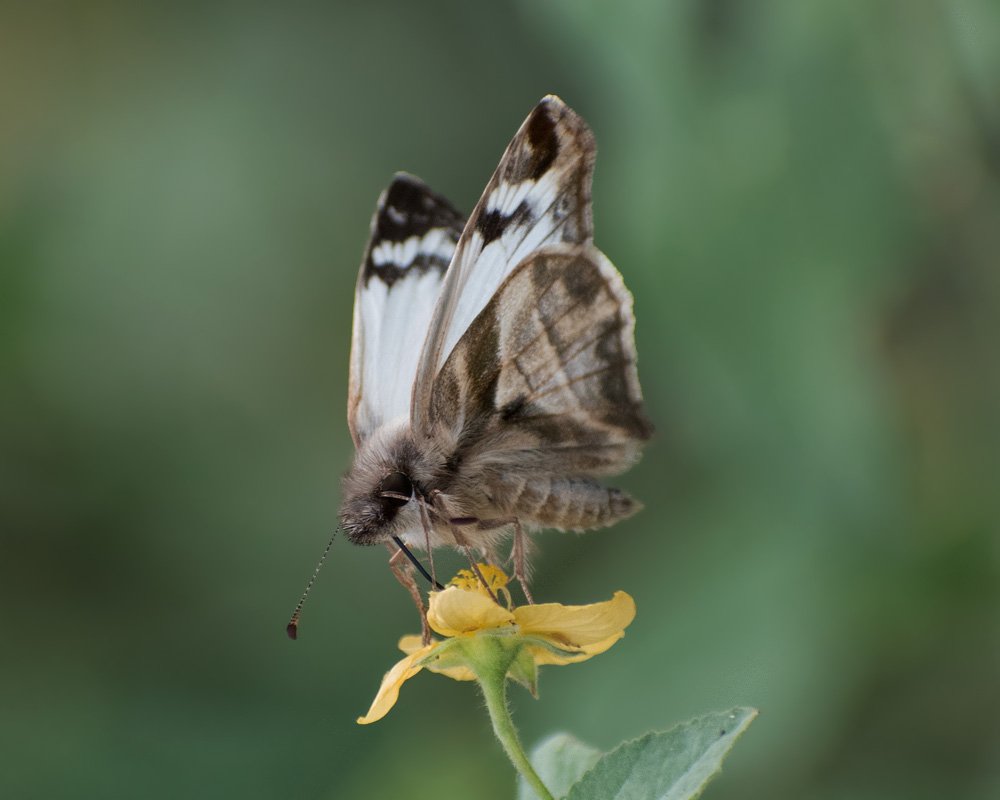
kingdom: Animalia
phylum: Arthropoda
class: Insecta
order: Lepidoptera
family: Hesperiidae
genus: Heliopetes
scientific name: Heliopetes laviana
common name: Laviana White-Skipper
